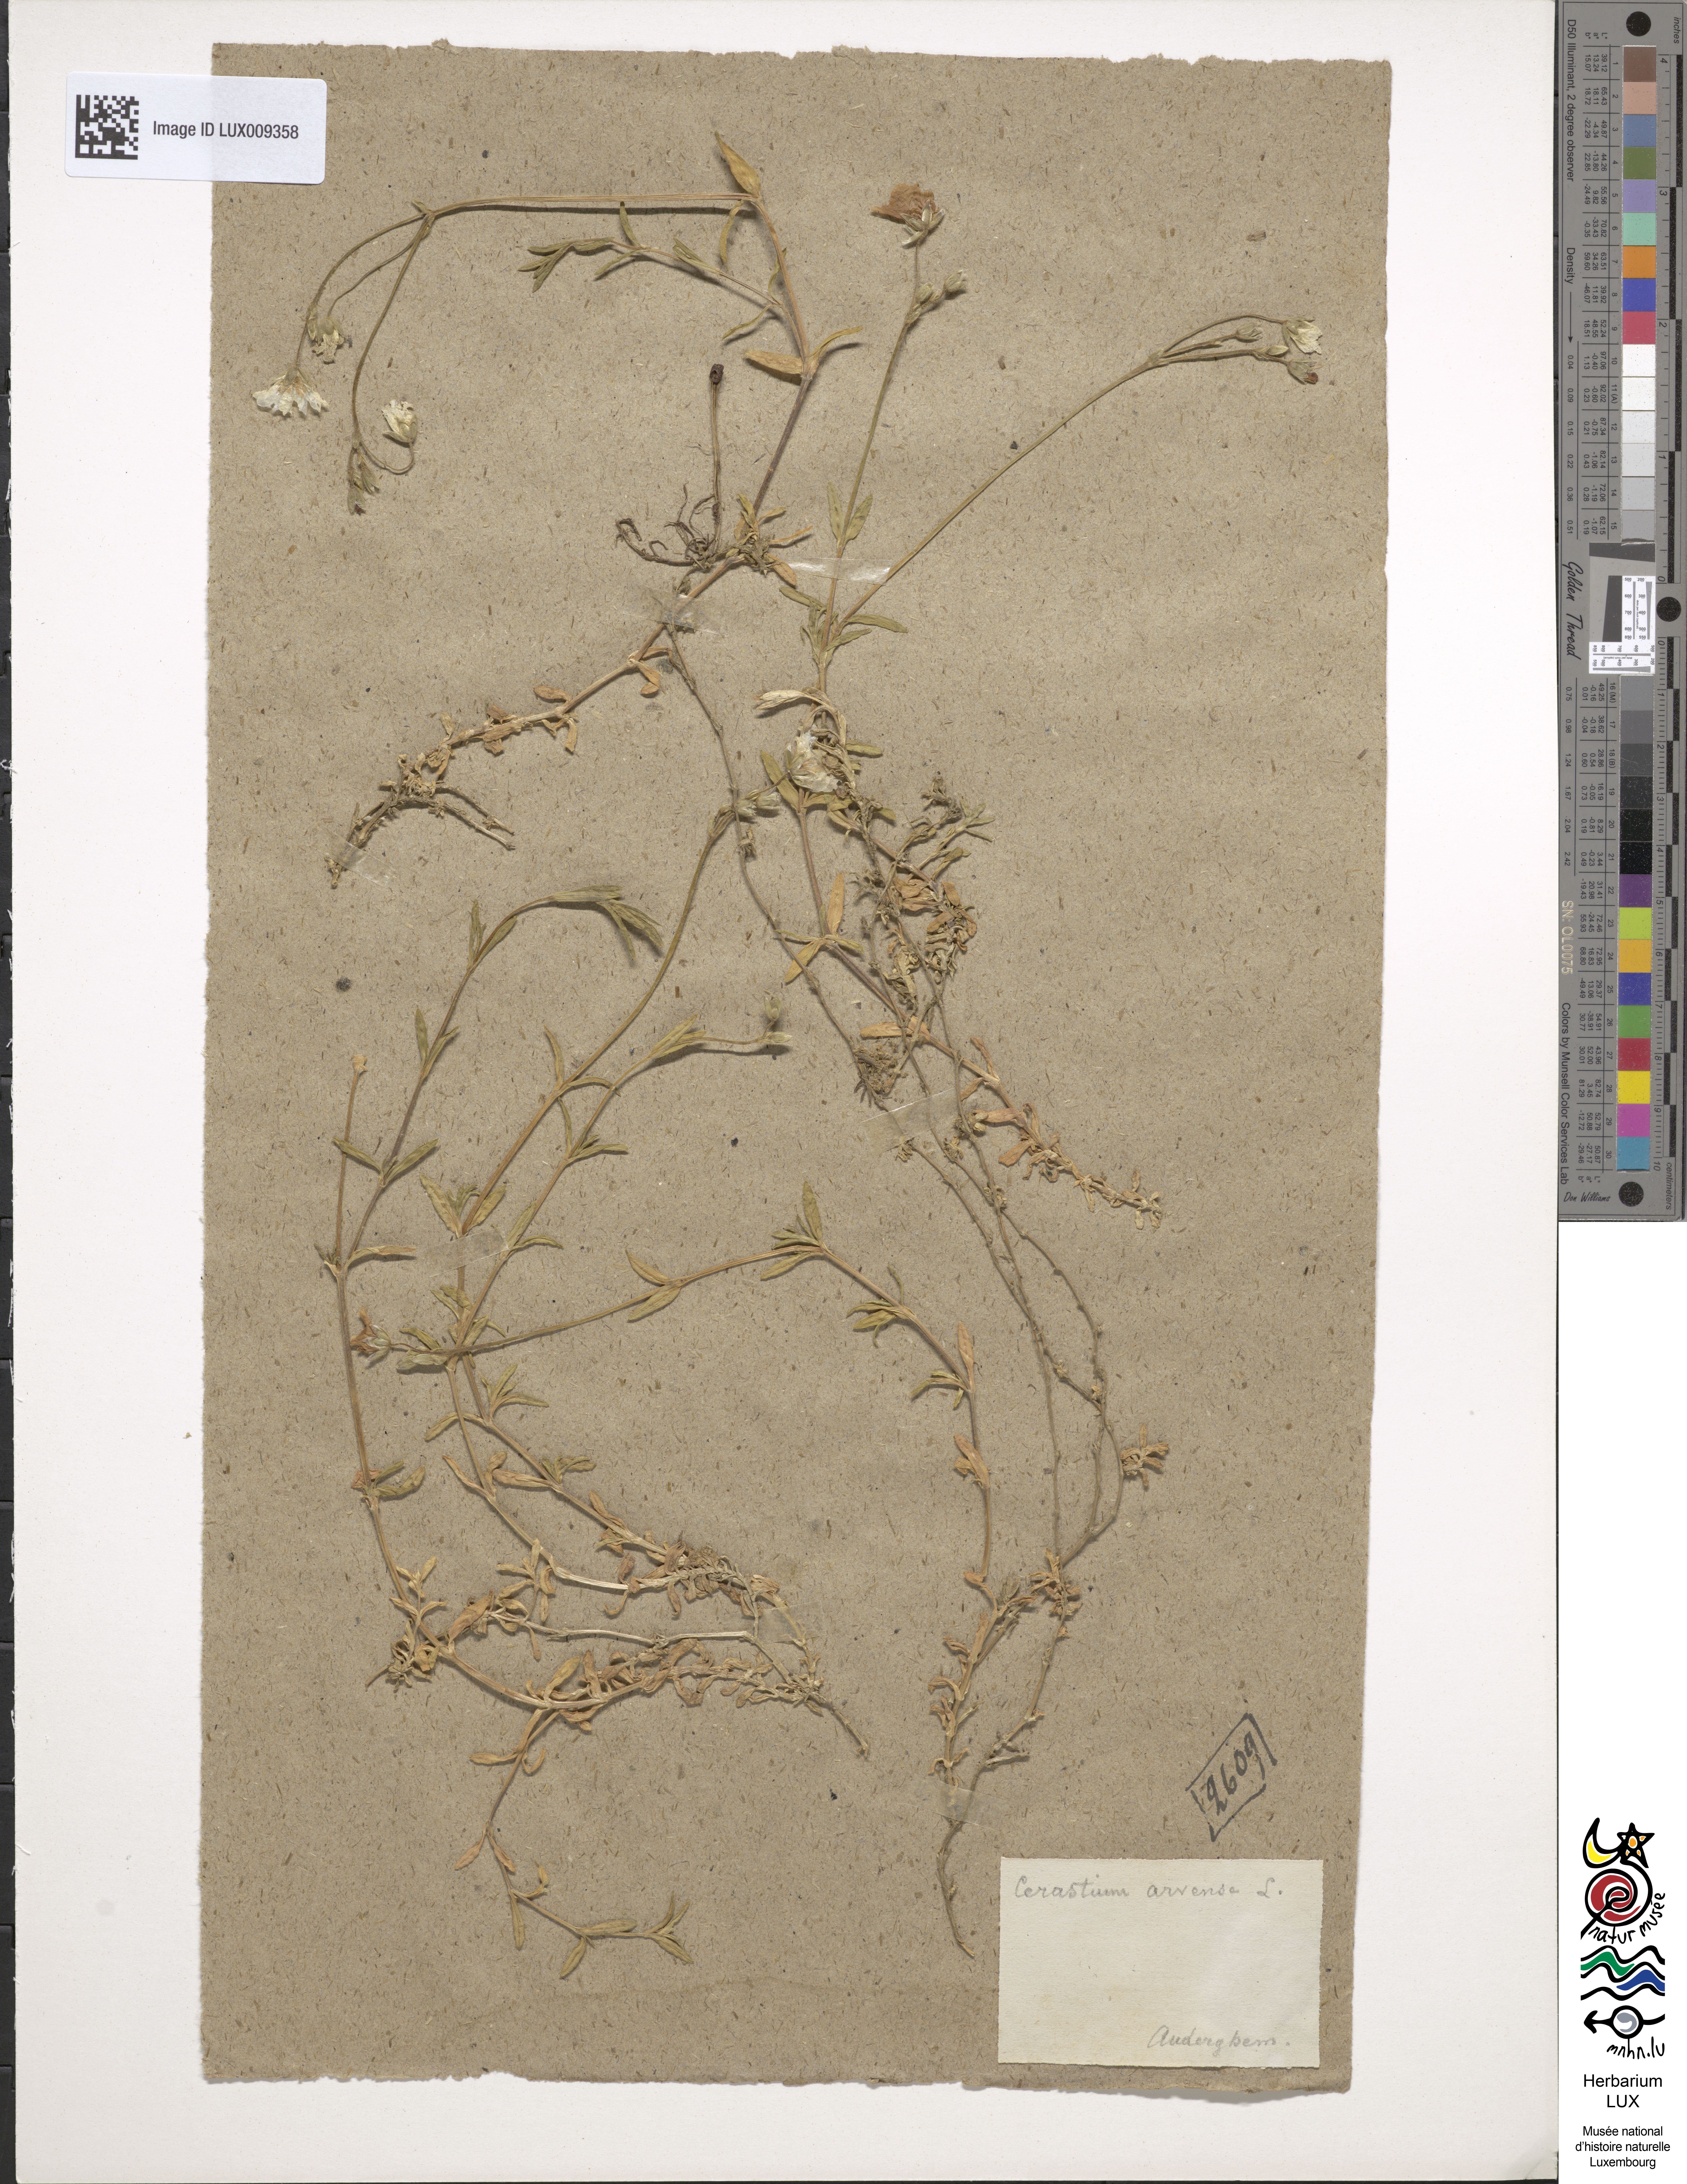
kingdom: Plantae
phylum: Tracheophyta
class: Magnoliopsida
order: Caryophyllales
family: Caryophyllaceae
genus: Cerastium
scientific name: Cerastium arvense
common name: Field mouse-ear
